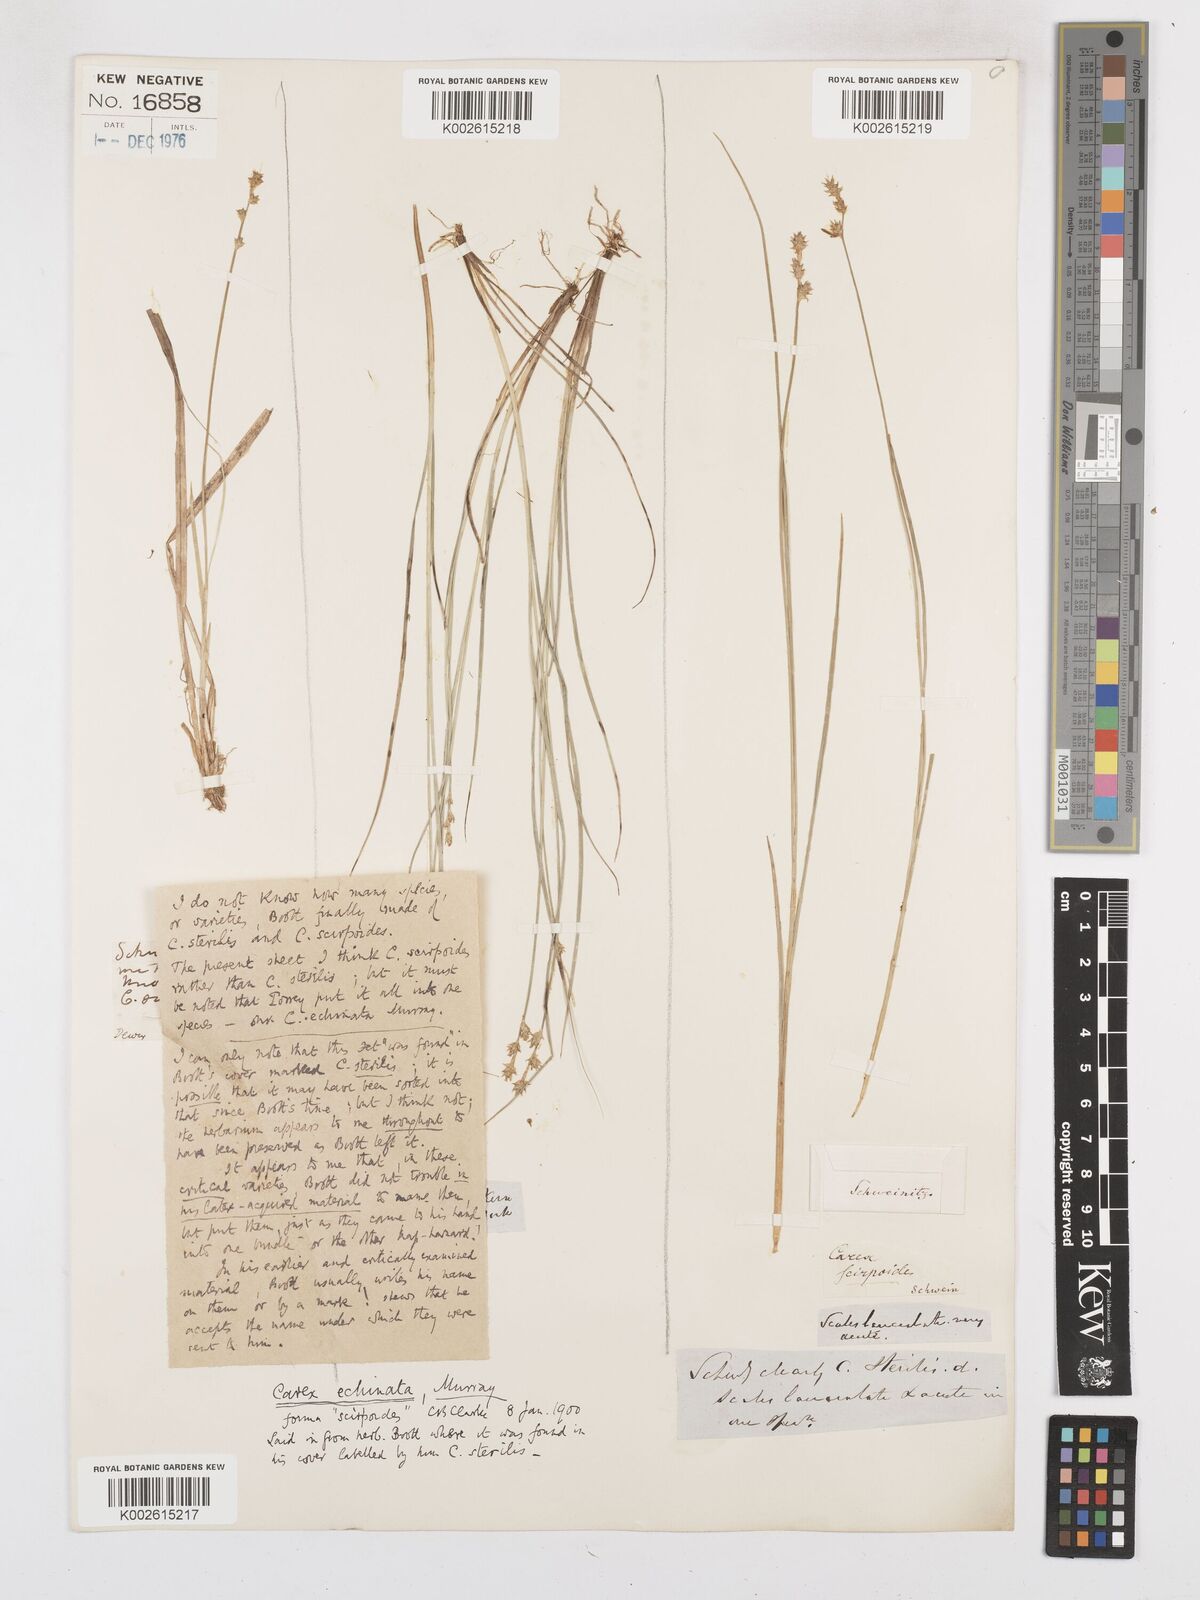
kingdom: Plantae
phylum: Tracheophyta
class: Liliopsida
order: Poales
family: Cyperaceae
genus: Carex
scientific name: Carex echinata
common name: Star sedge
